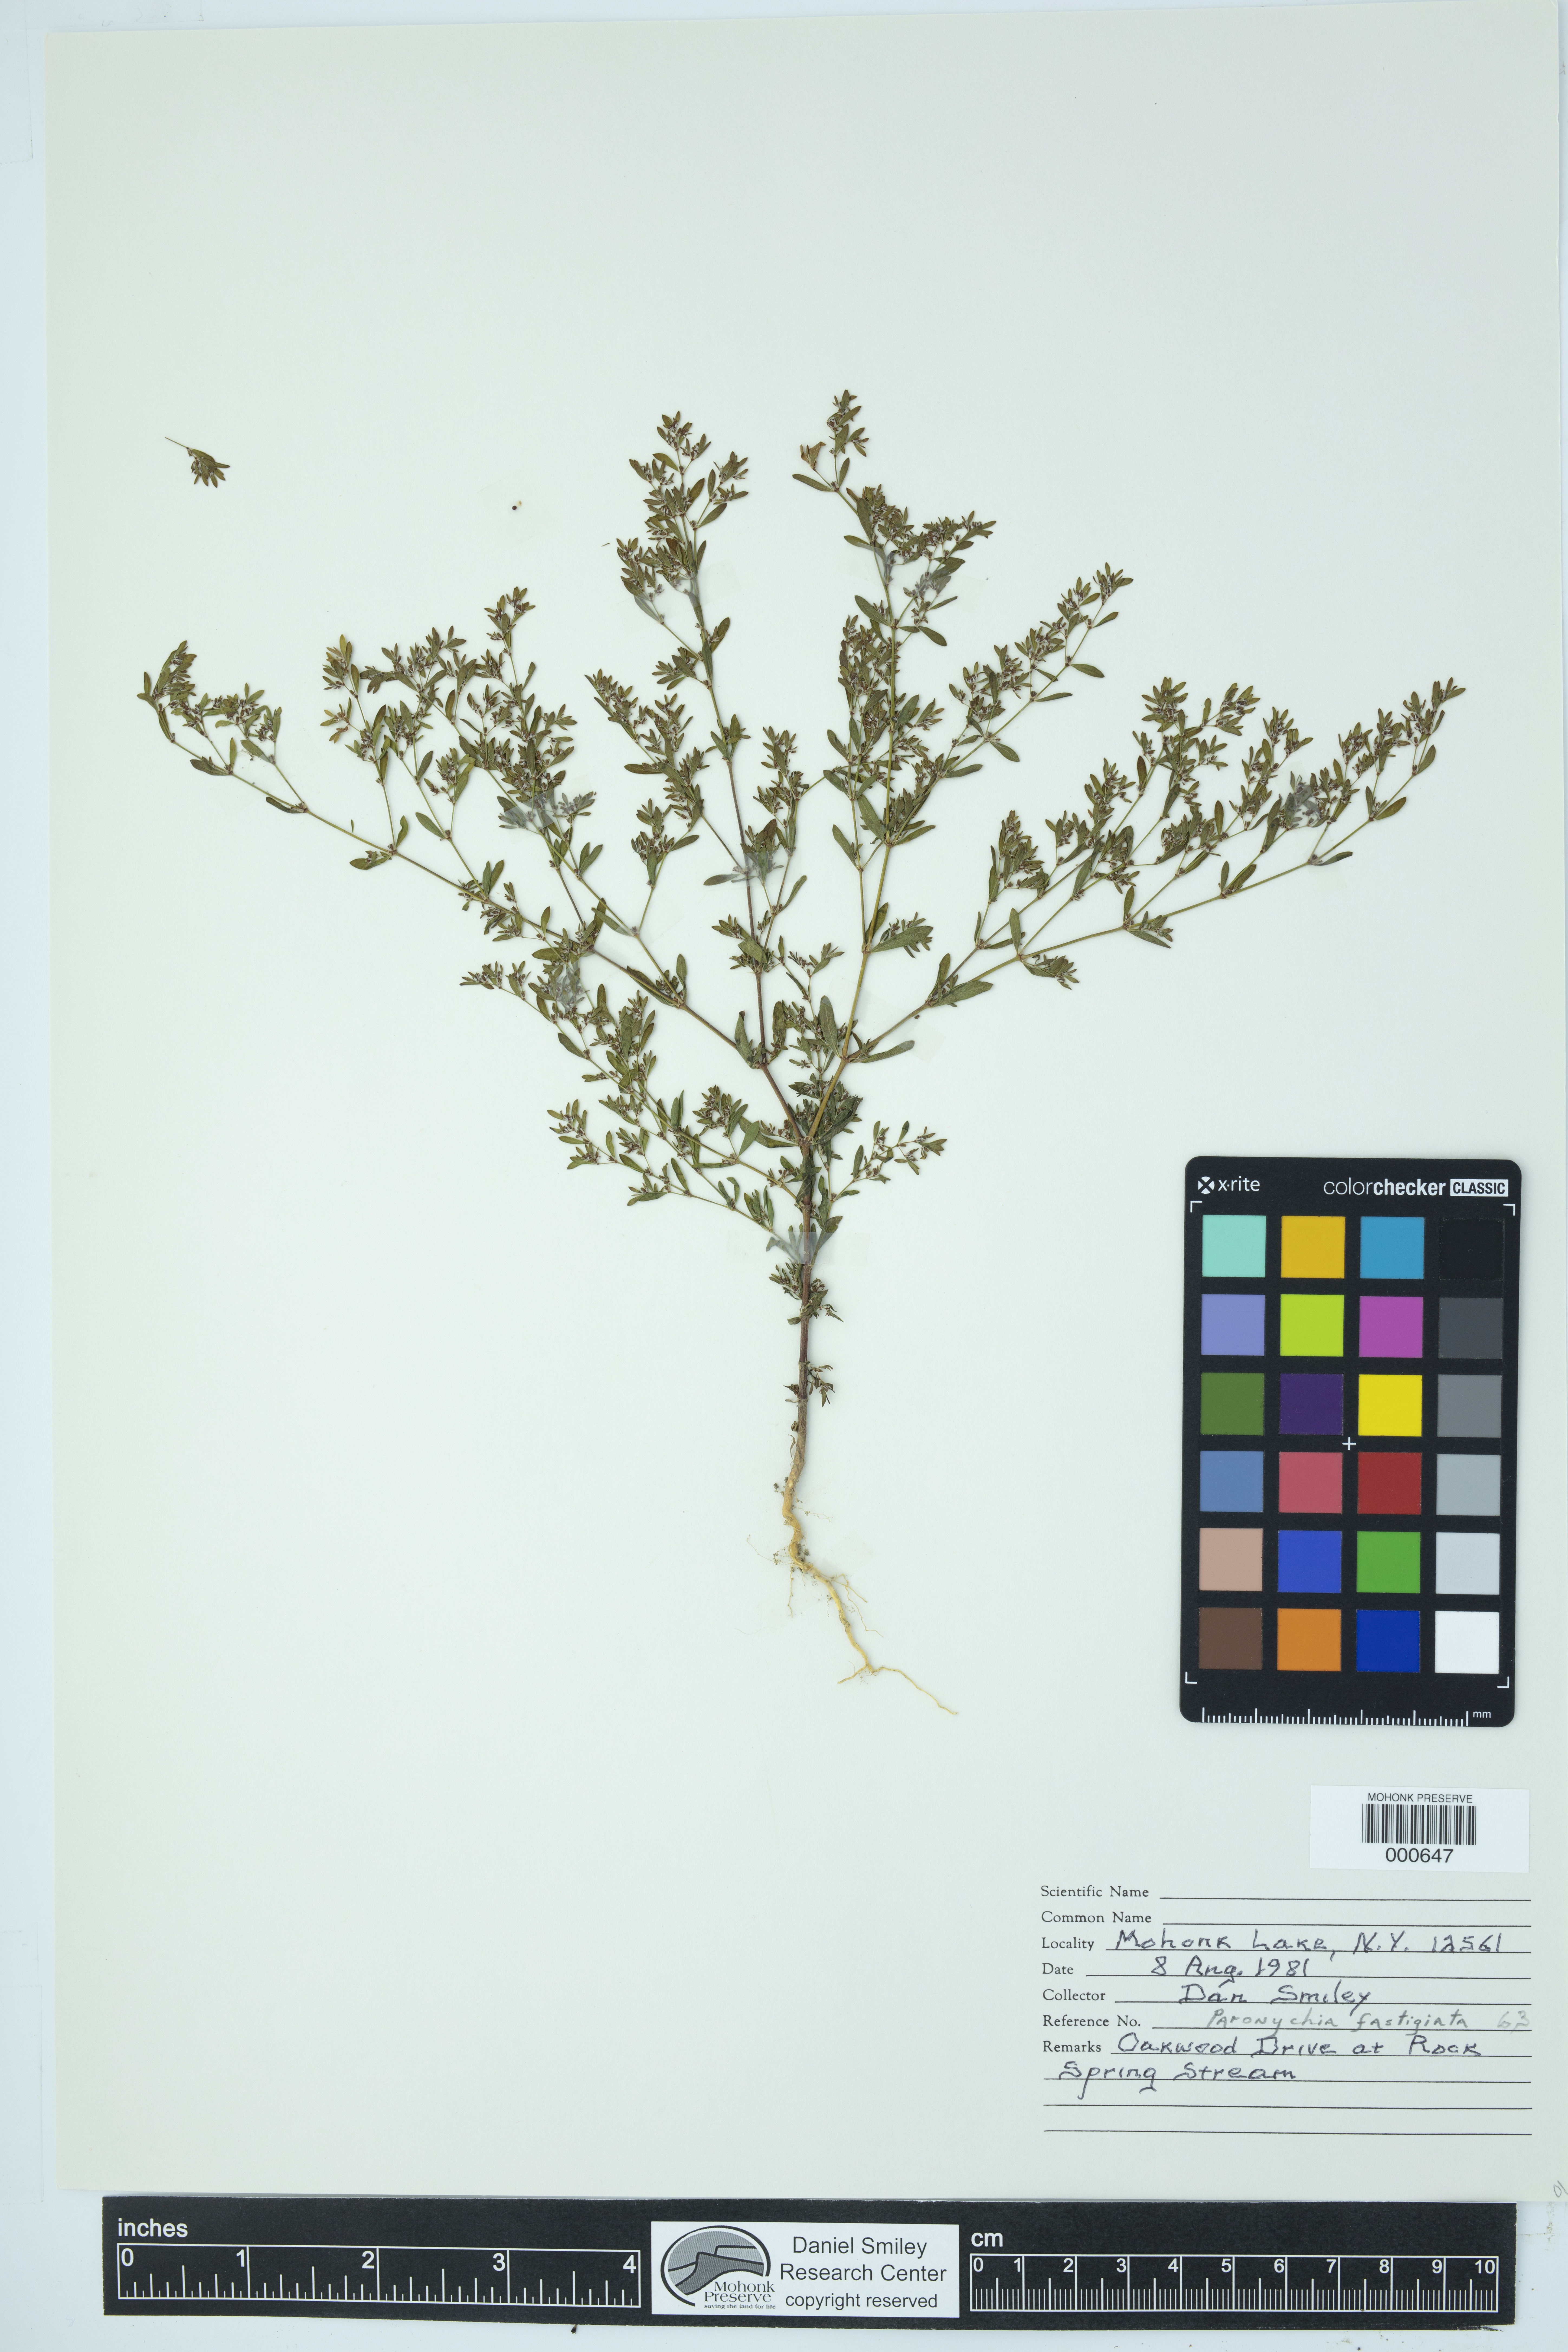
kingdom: Plantae
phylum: Tracheophyta
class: Magnoliopsida
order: Caryophyllales
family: Caryophyllaceae
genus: Paronychia
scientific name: Paronychia fastigiata
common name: Branching forked whitlow-wort
